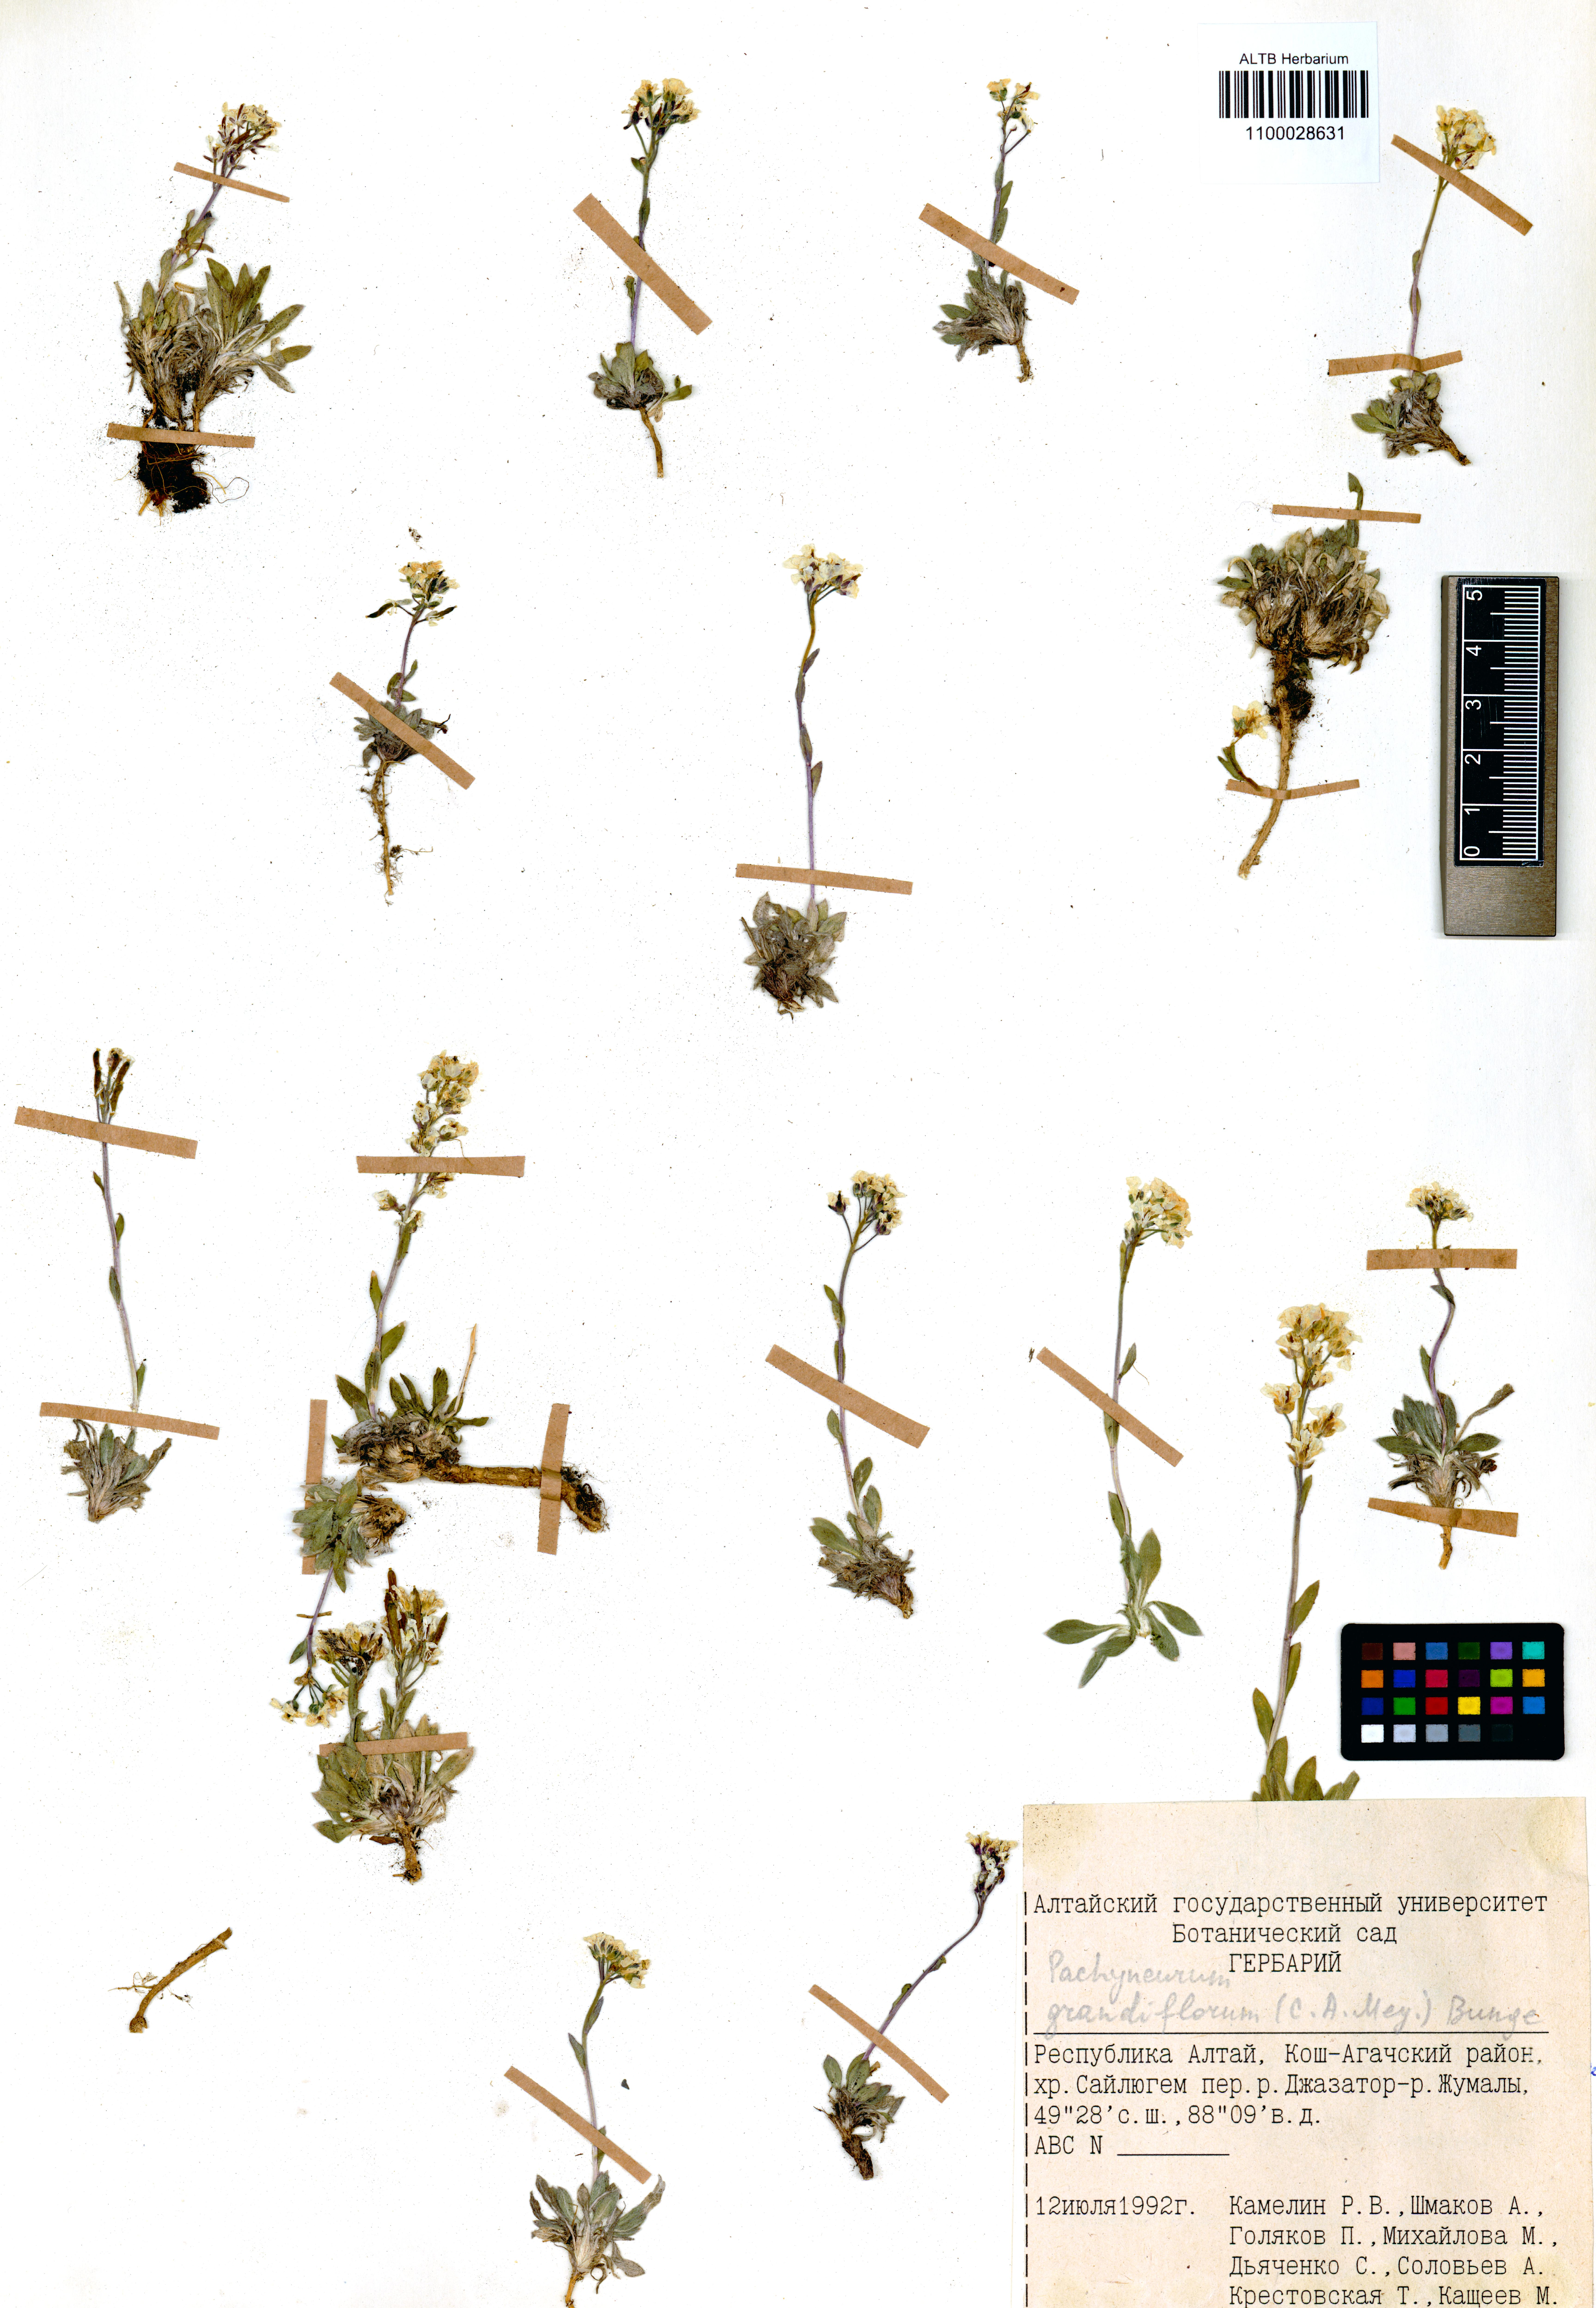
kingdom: Plantae
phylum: Tracheophyta
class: Magnoliopsida
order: Brassicales
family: Brassicaceae
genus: Pachyneurum
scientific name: Pachyneurum grandiflorum
